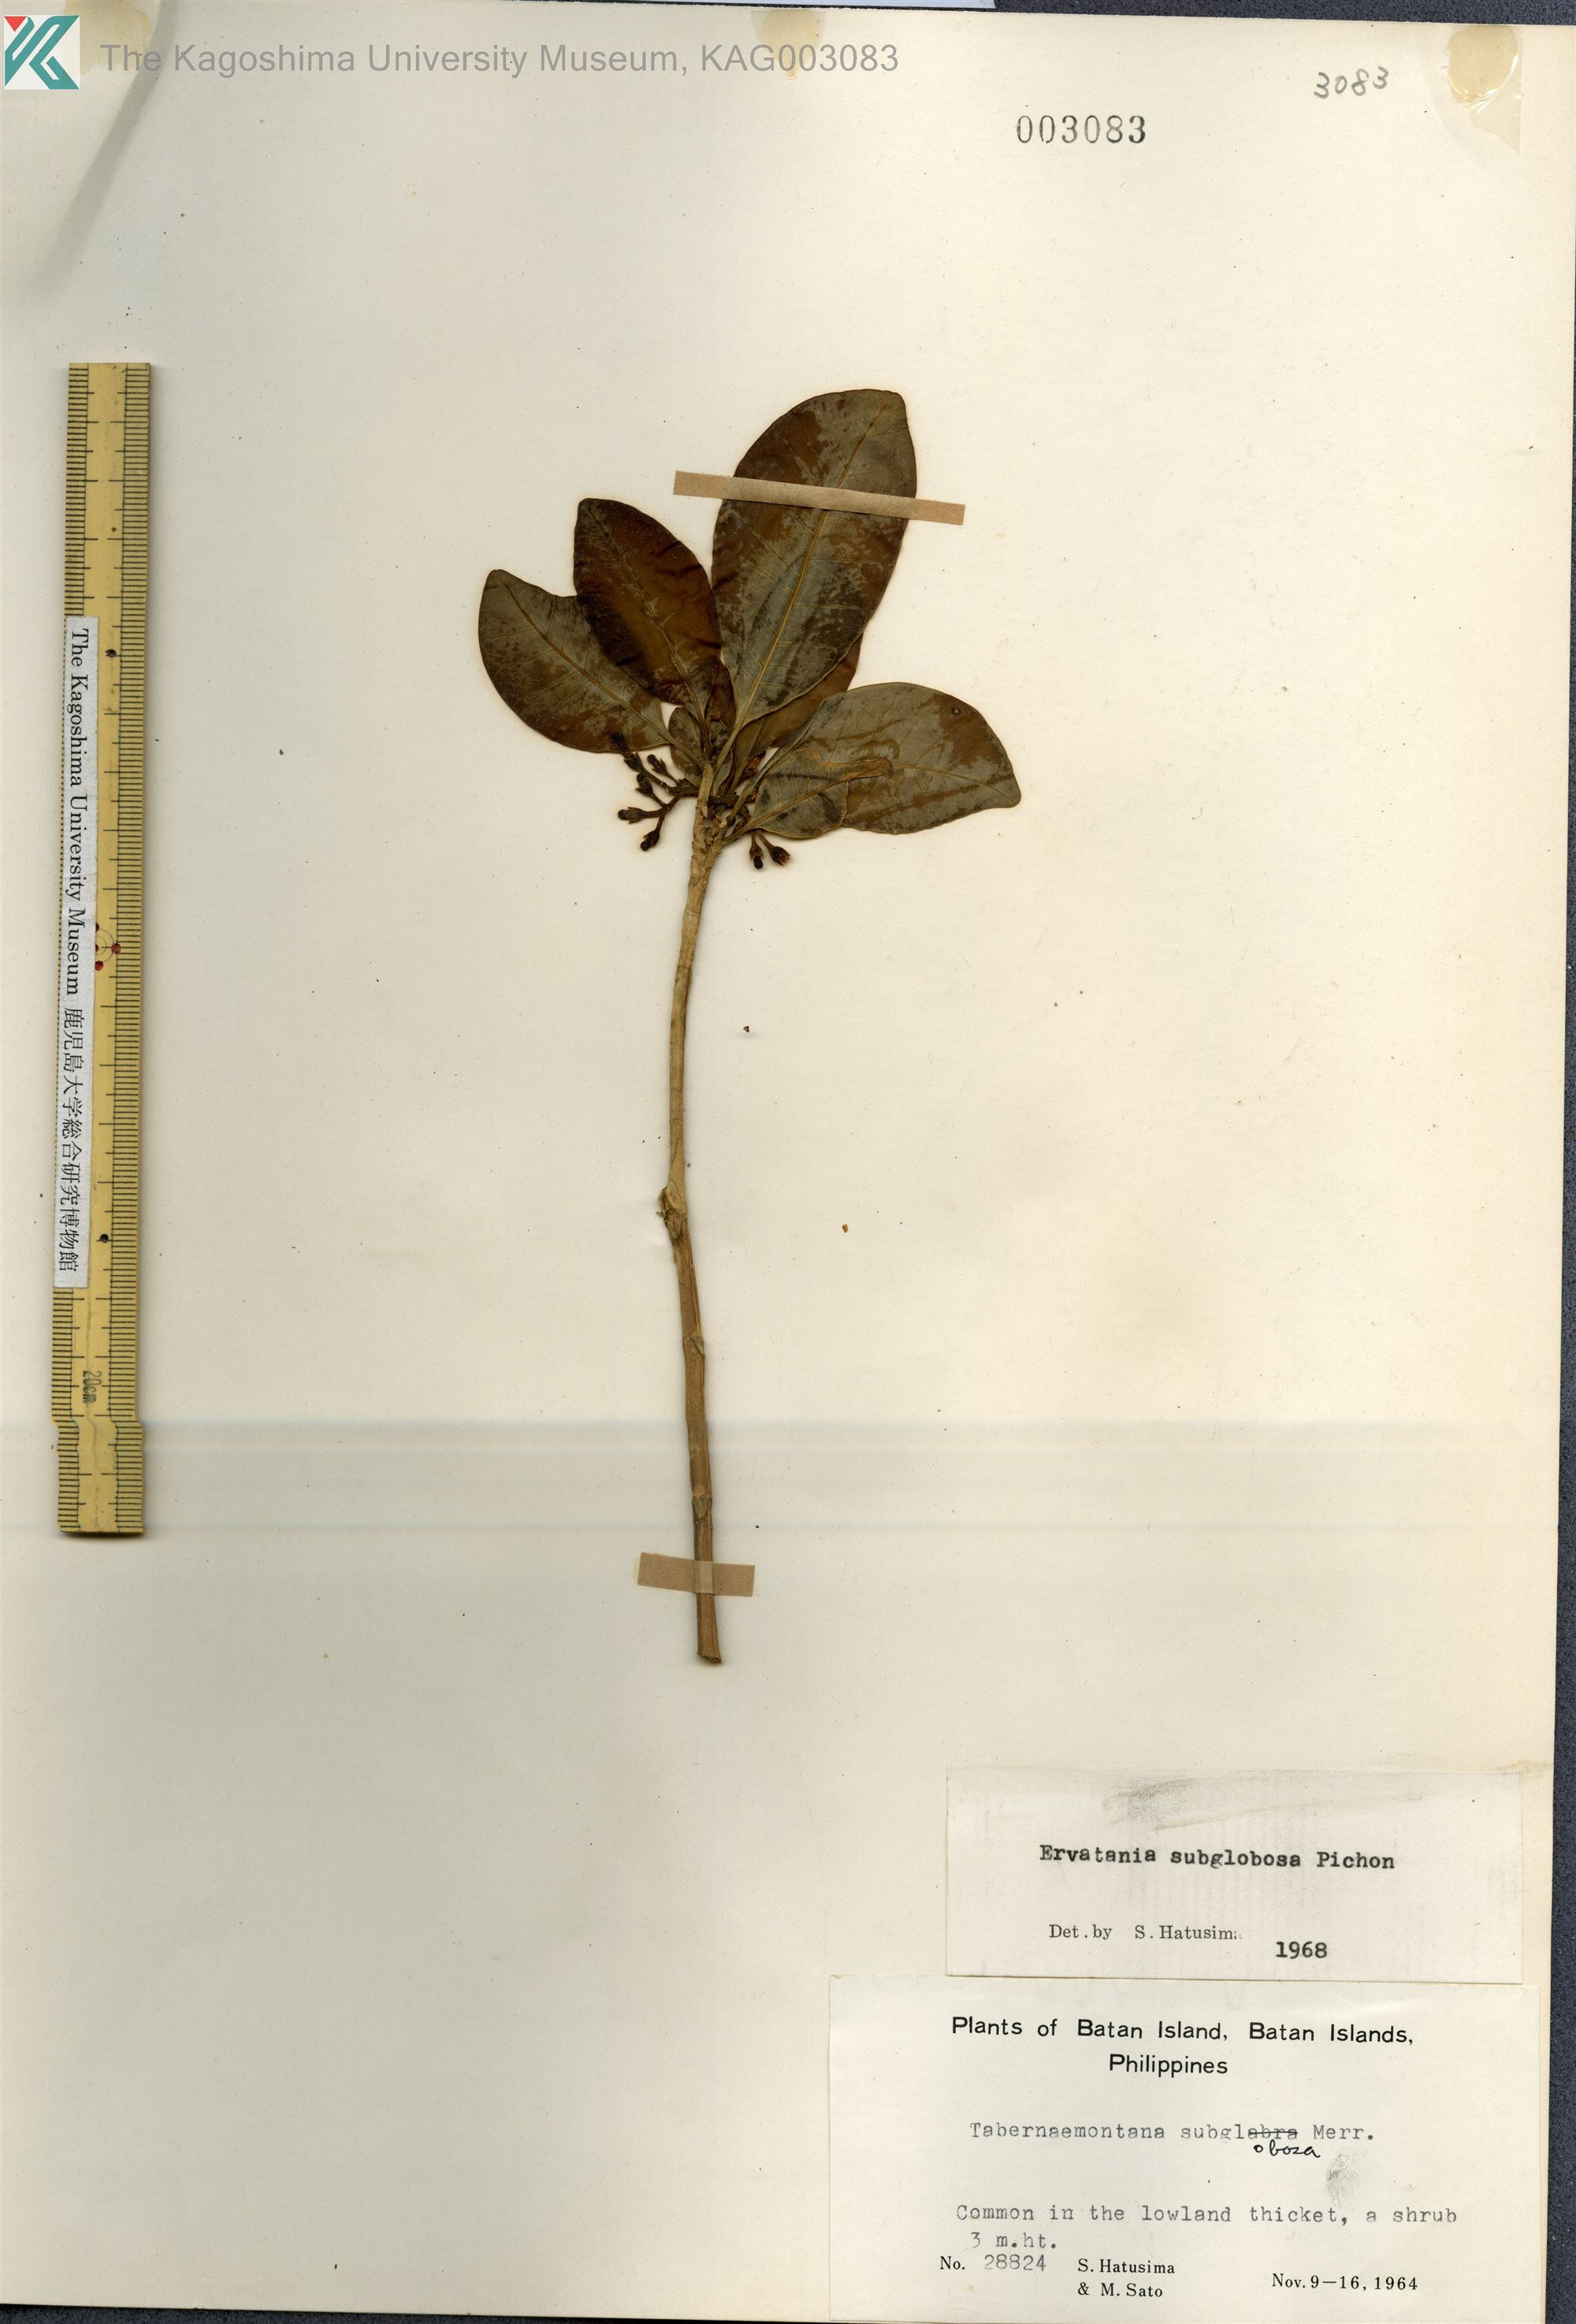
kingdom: Plantae
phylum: Tracheophyta
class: Magnoliopsida
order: Gentianales
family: Apocynaceae
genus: Tabernaemontana
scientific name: Tabernaemontana pandacaqui
